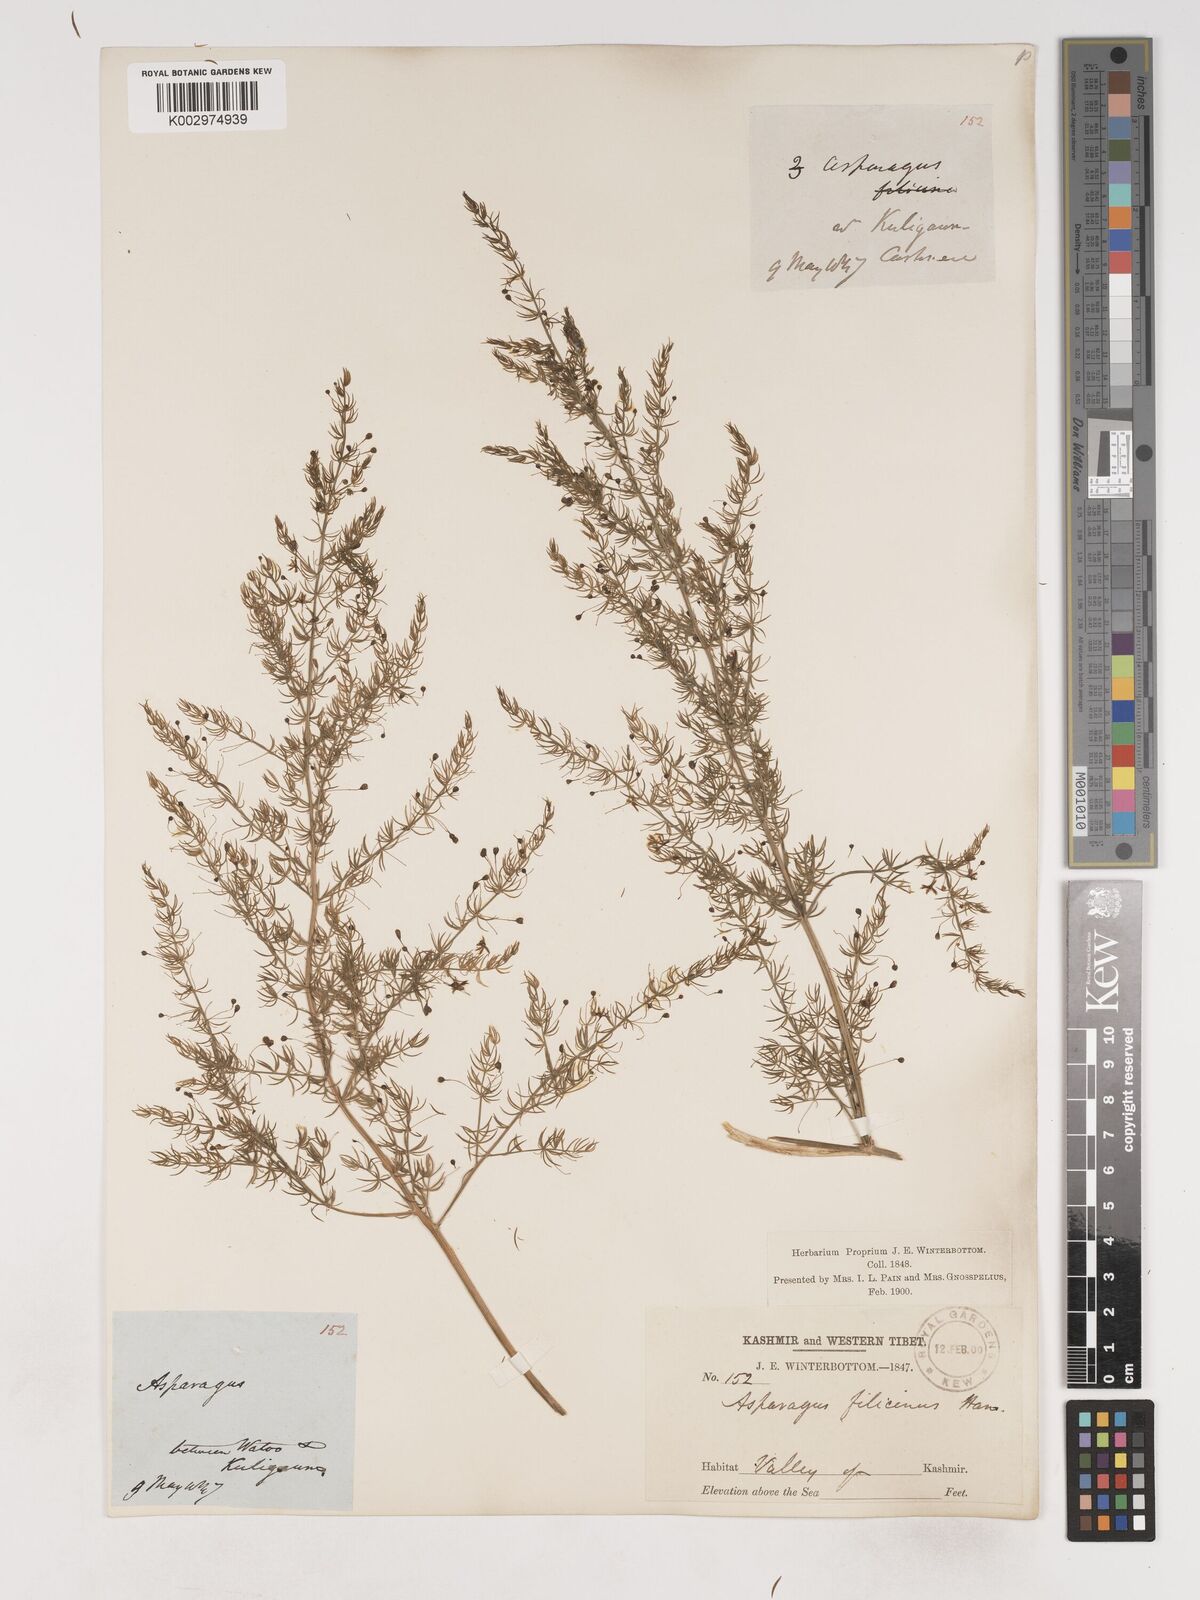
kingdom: Plantae
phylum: Tracheophyta
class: Liliopsida
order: Asparagales
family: Asparagaceae
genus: Asparagus
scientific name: Asparagus filicinus
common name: Fern asparagus
